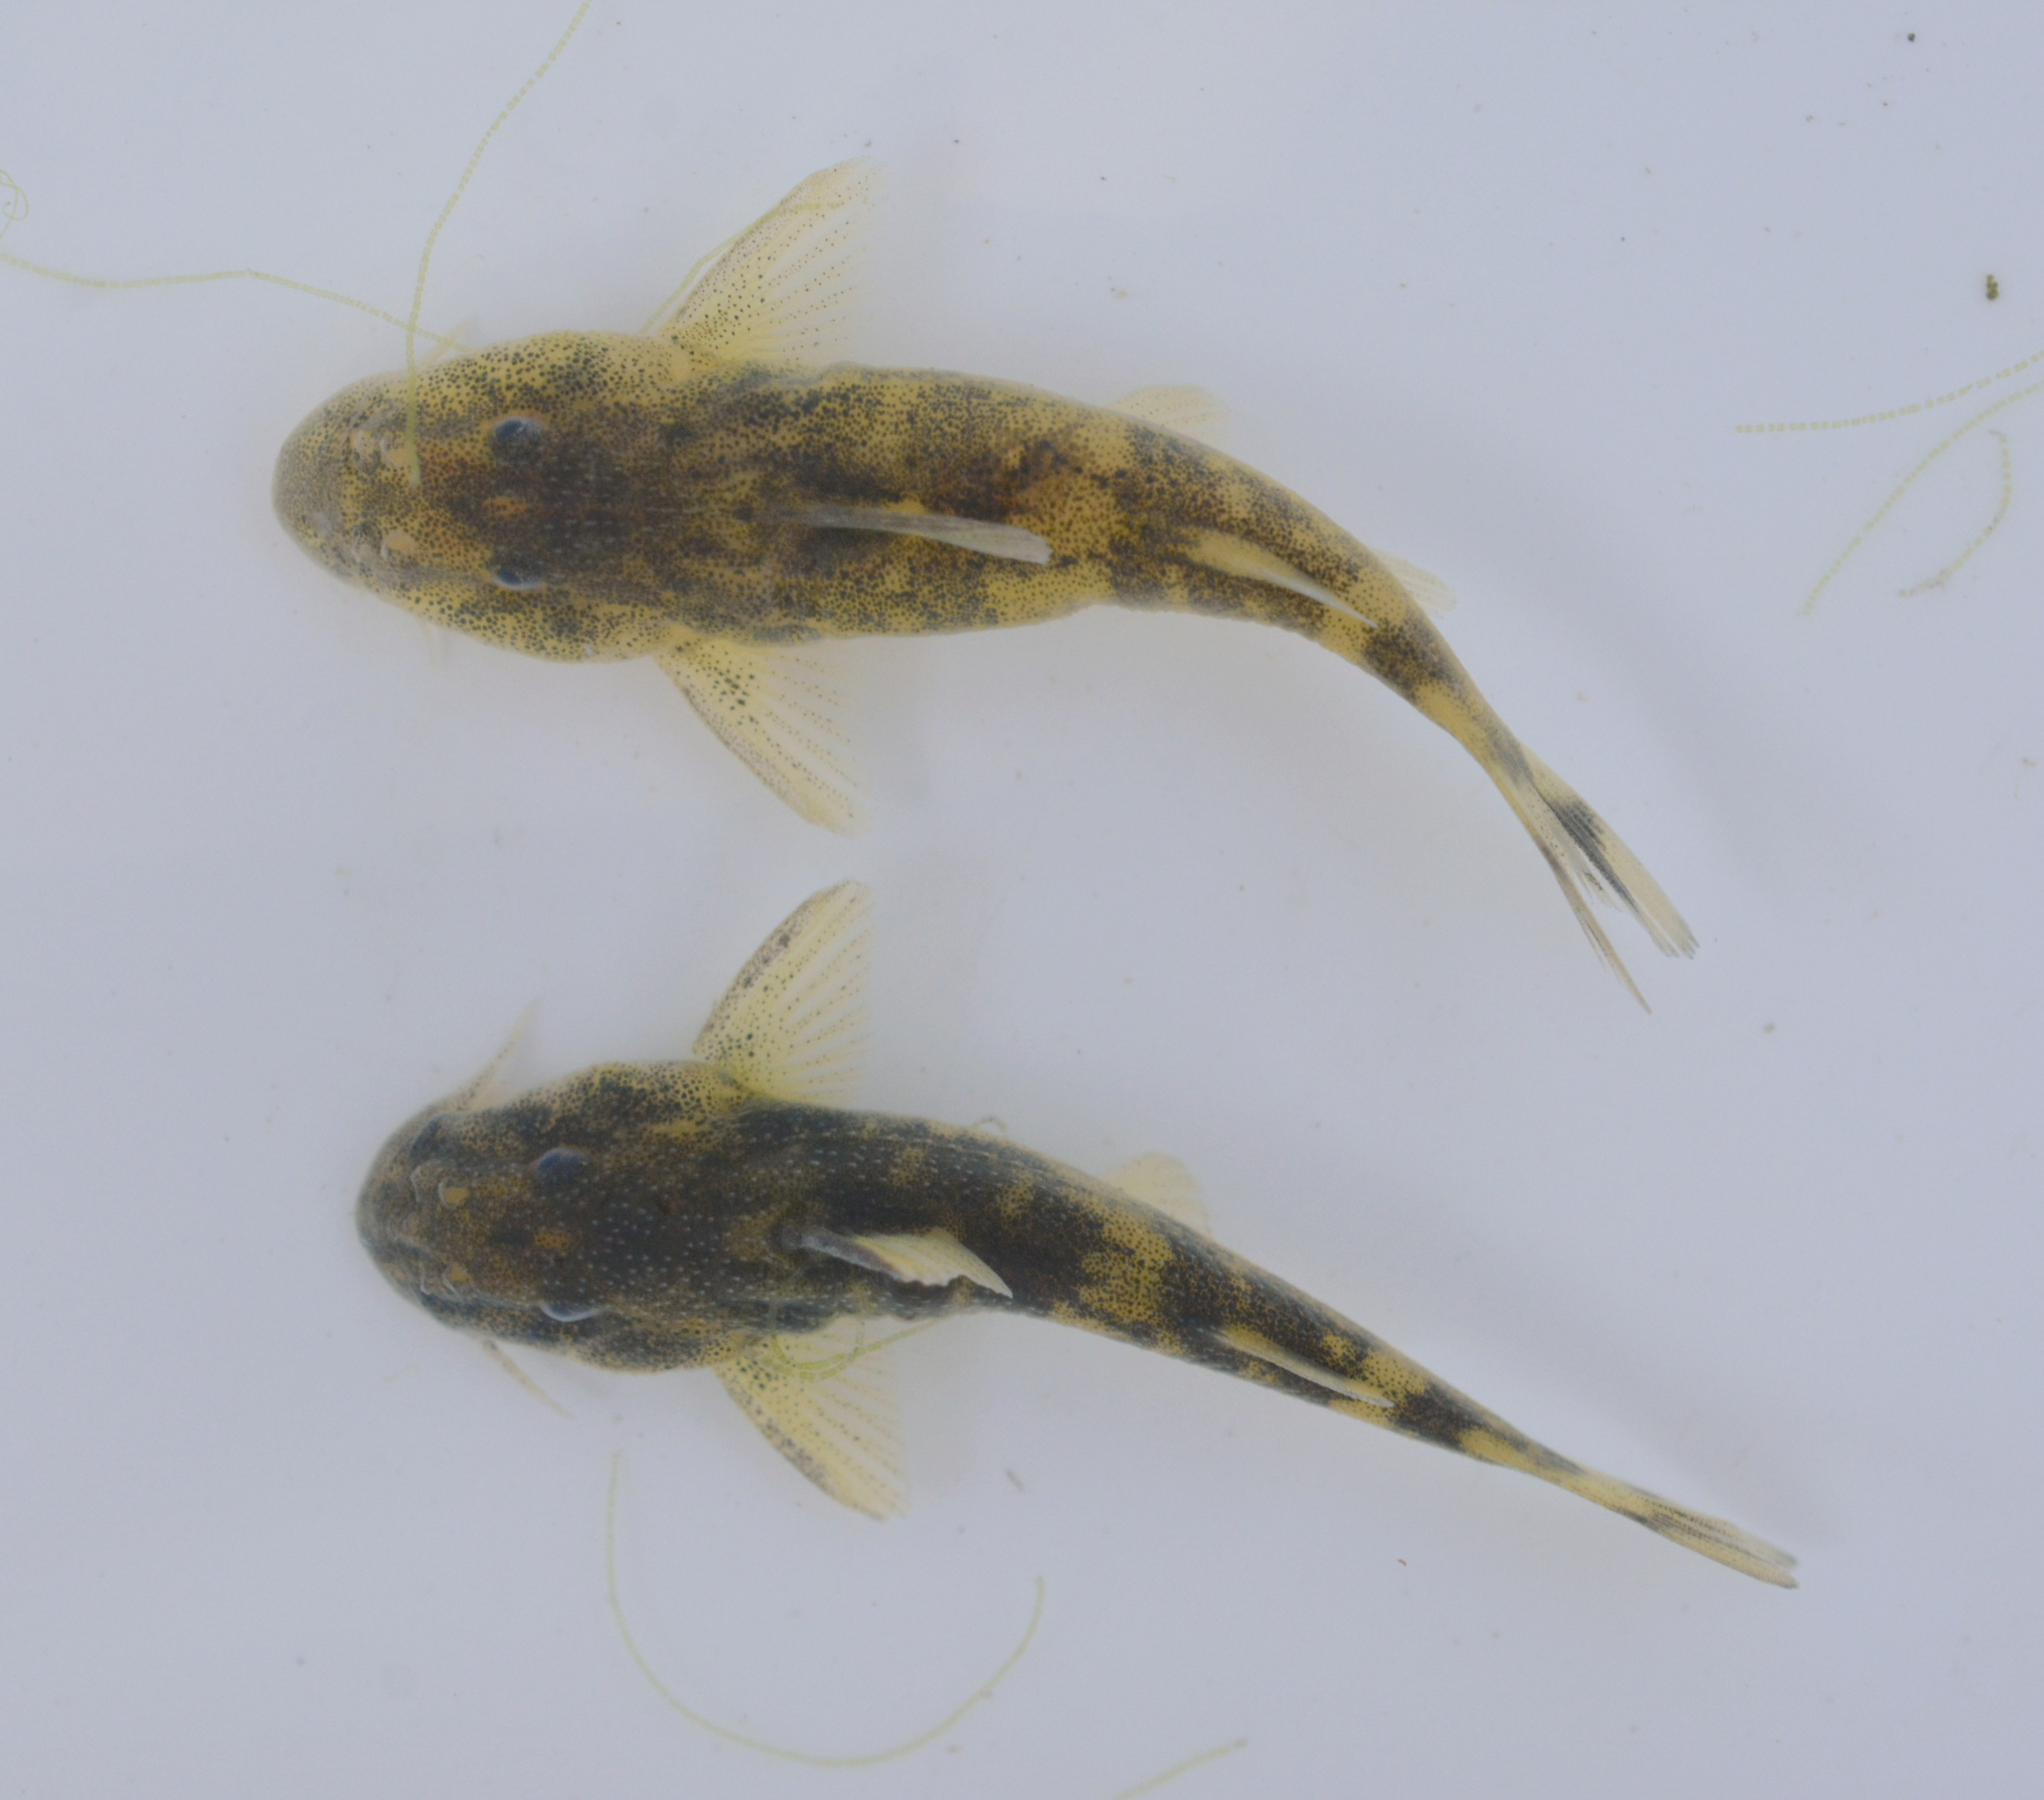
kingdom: Animalia
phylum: Chordata
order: Siluriformes
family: Mochokidae
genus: Chiloglanis
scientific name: Chiloglanis fasciatus
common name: Okavango suckermouth
